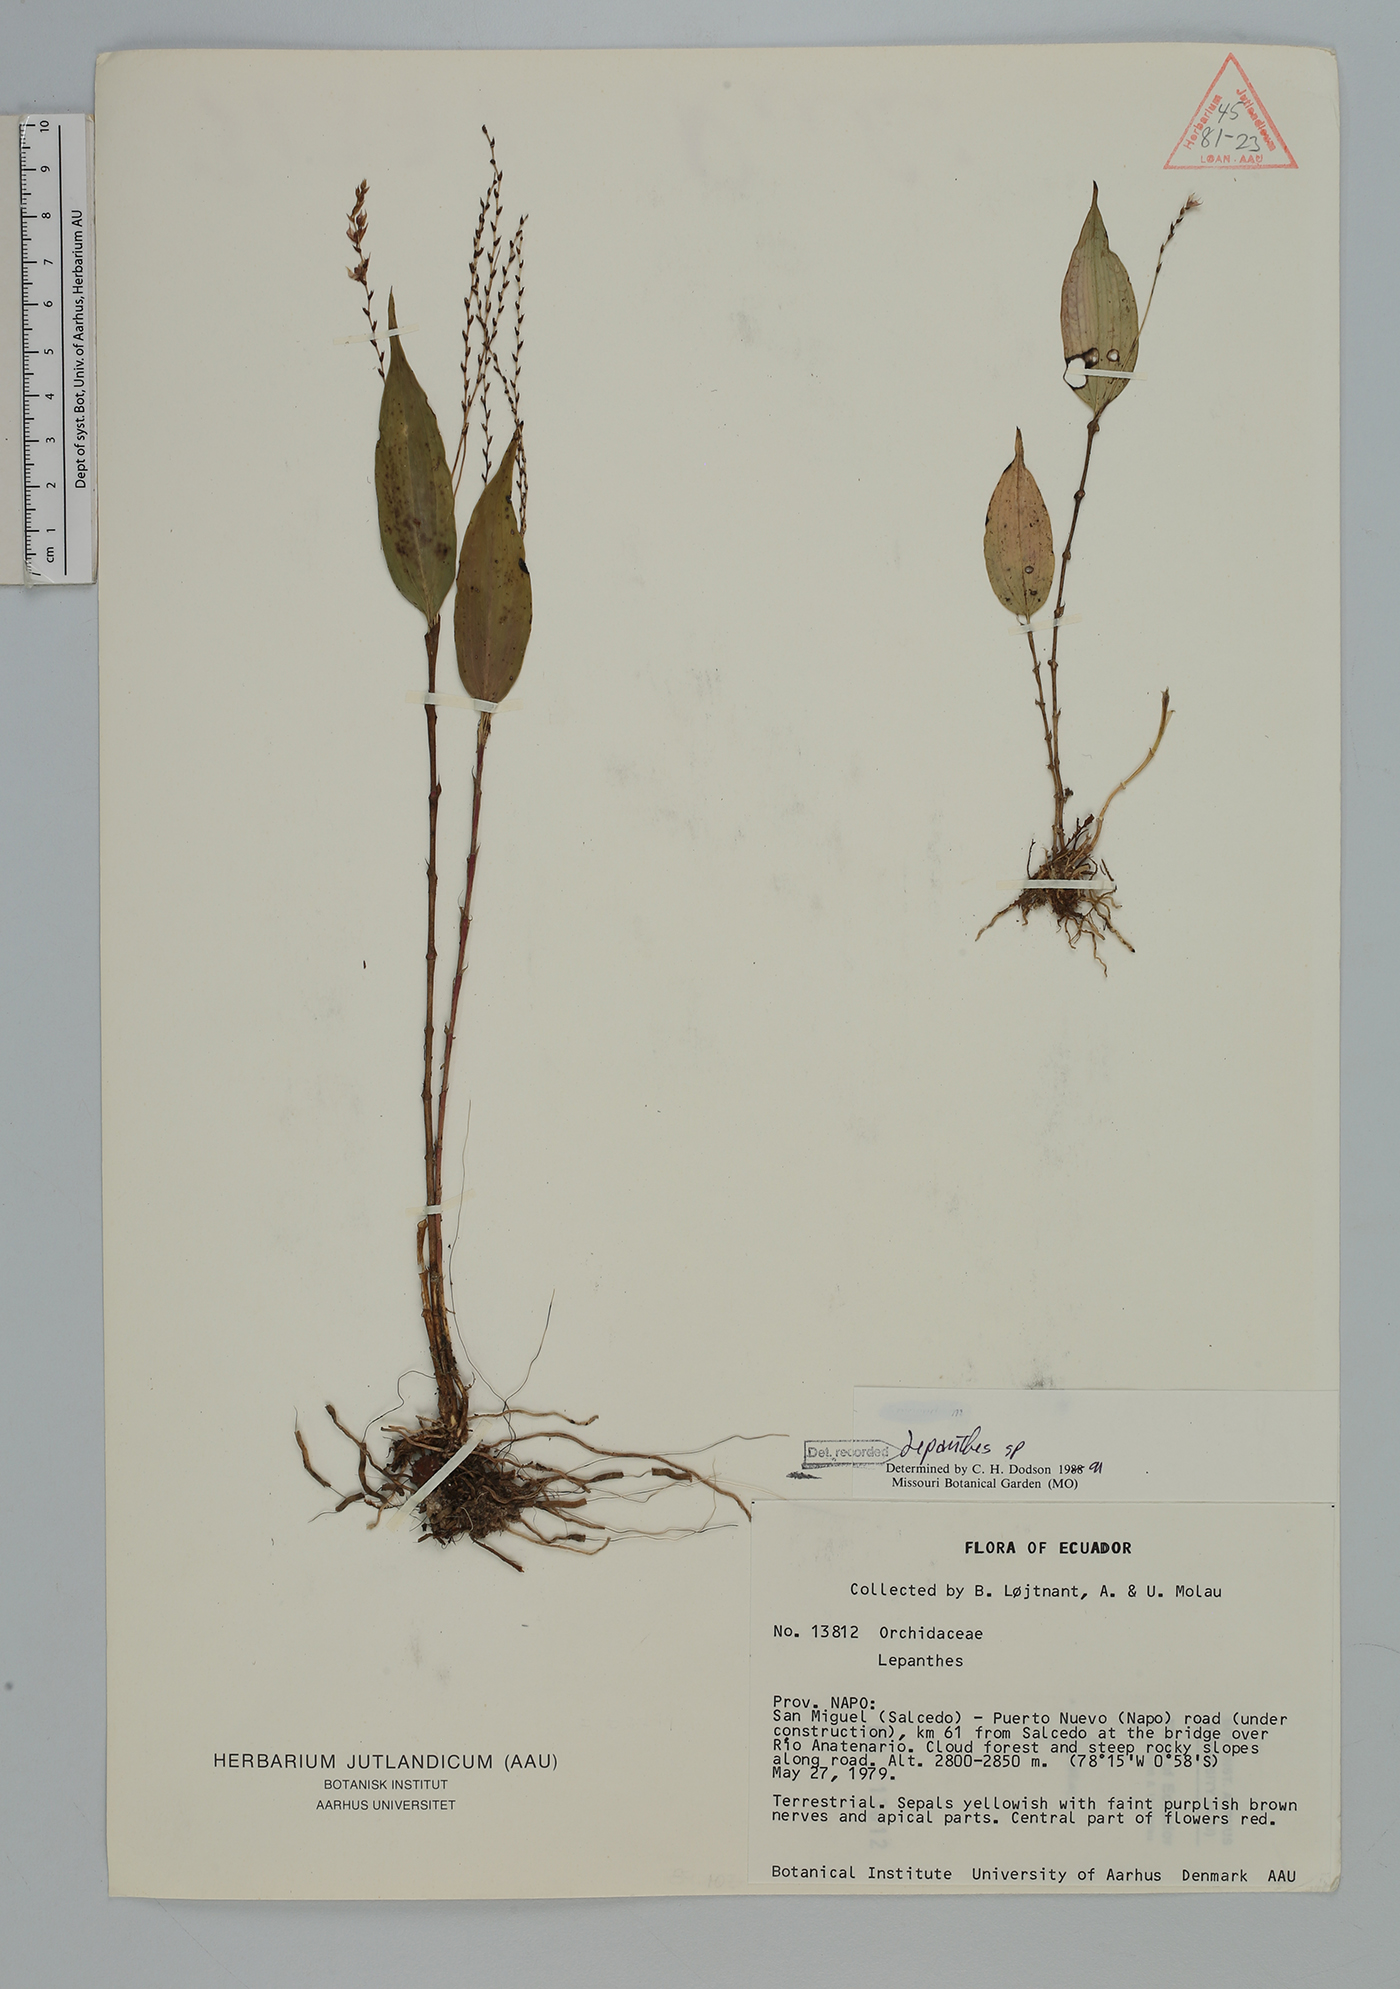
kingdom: Plantae
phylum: Tracheophyta
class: Liliopsida
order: Asparagales
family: Orchidaceae
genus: Lepanthes
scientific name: Lepanthes
